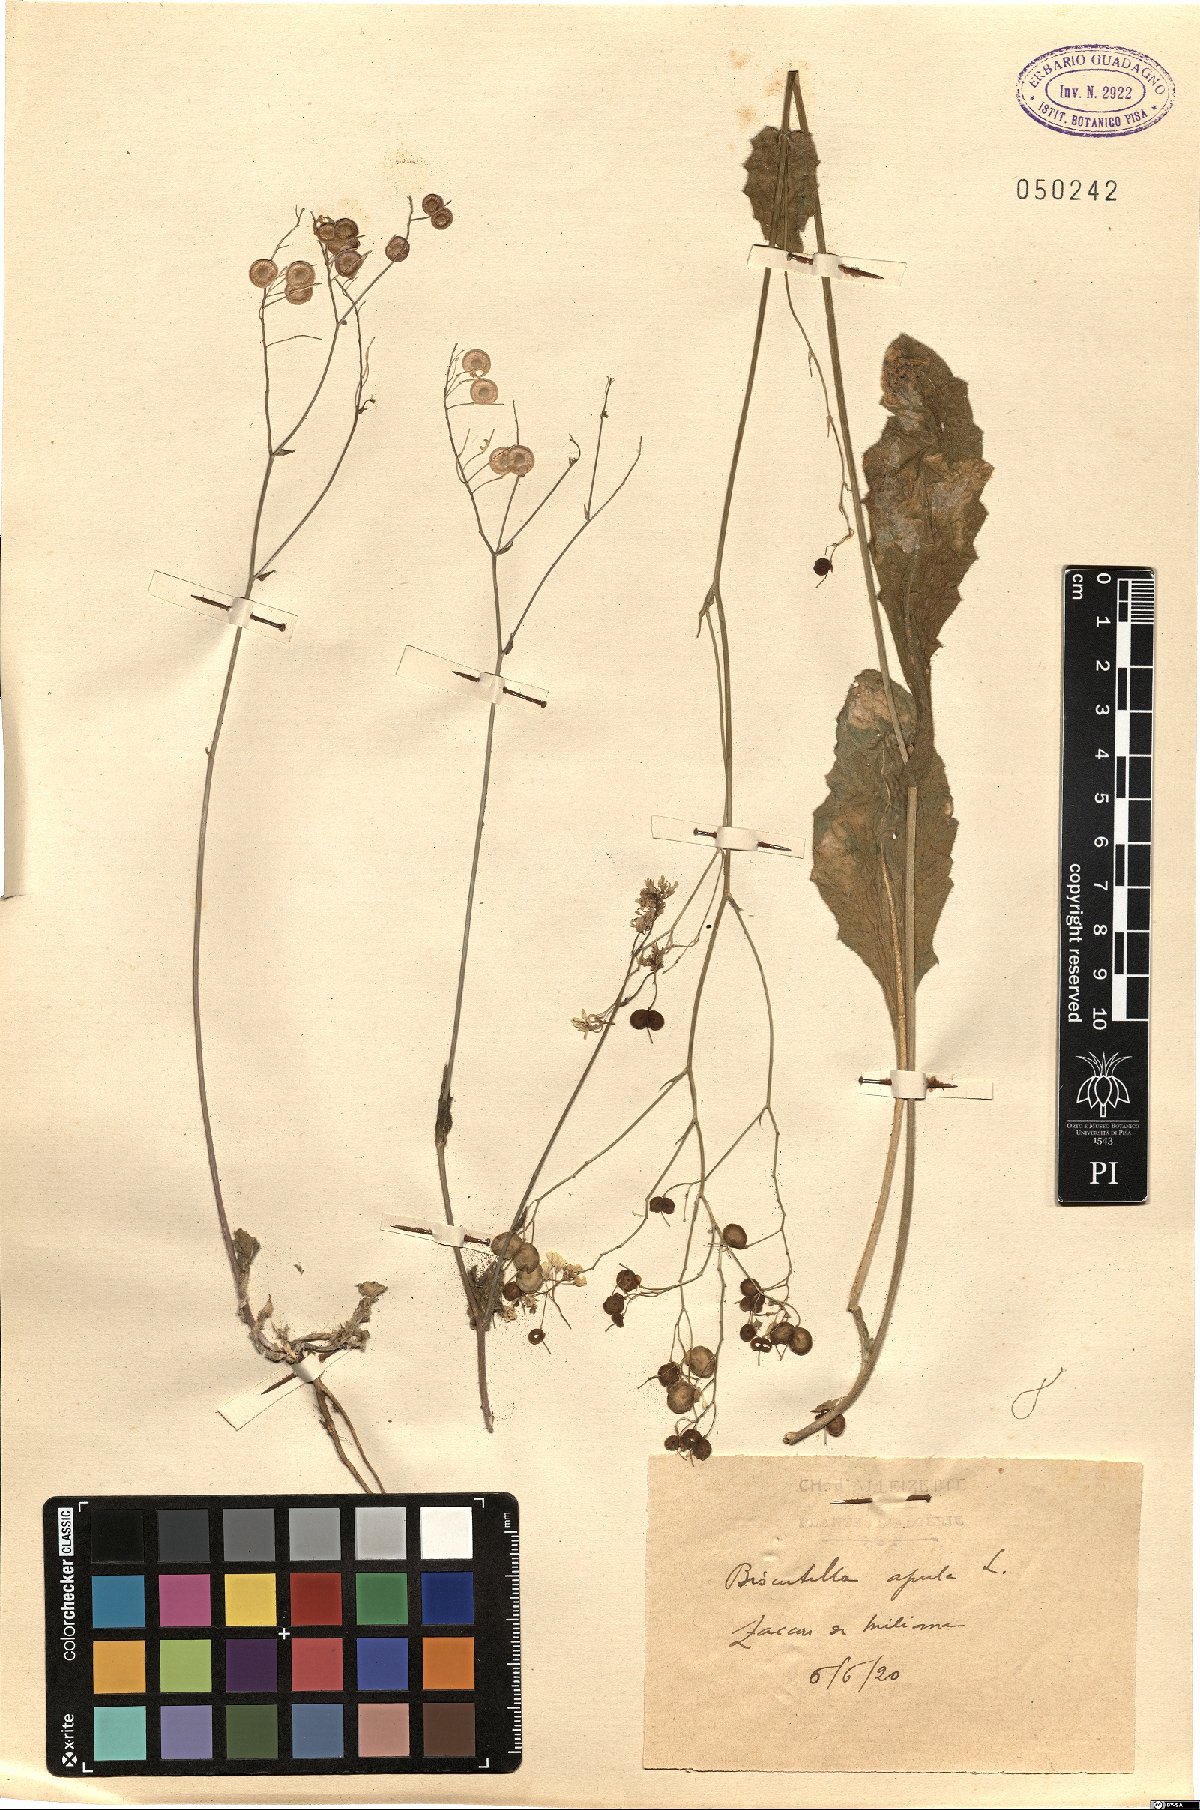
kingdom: Plantae
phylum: Tracheophyta
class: Magnoliopsida
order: Brassicales
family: Brassicaceae
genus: Biscutella
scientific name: Biscutella didyma
